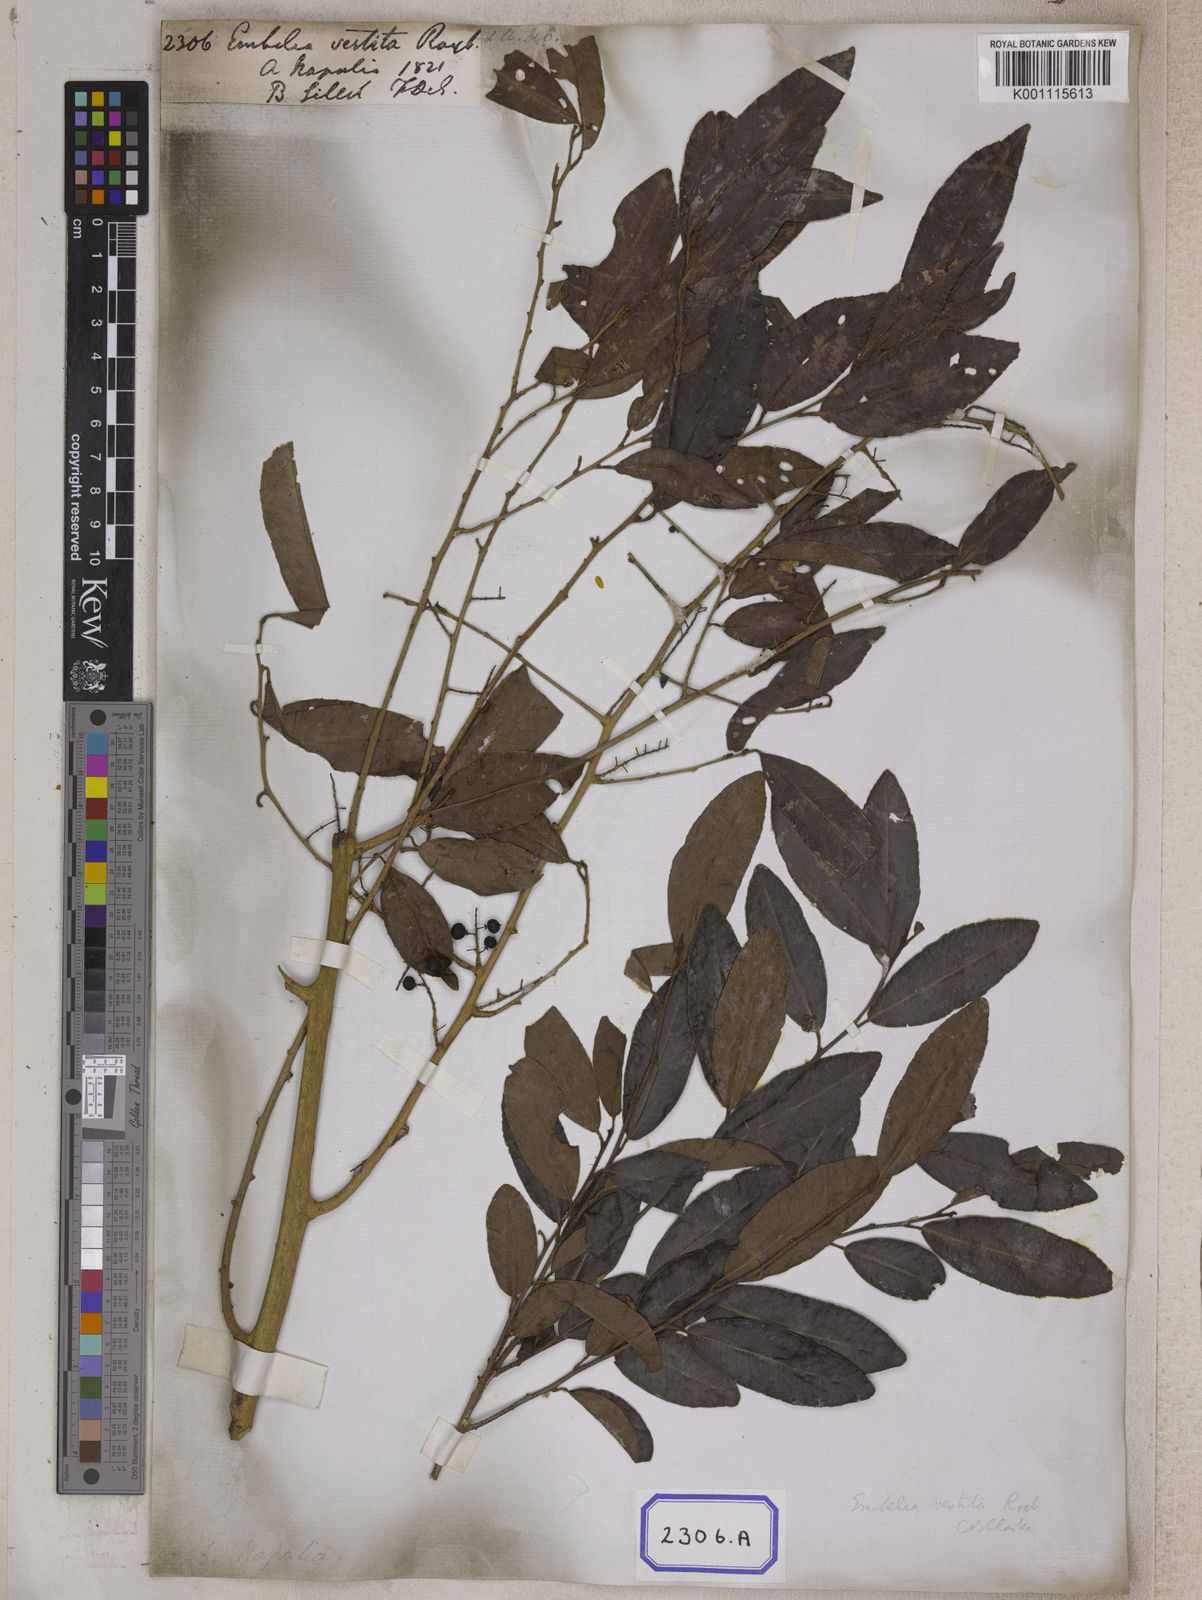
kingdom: Plantae
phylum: Tracheophyta
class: Magnoliopsida
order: Ericales
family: Primulaceae
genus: Embelia
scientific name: Embelia vestita
